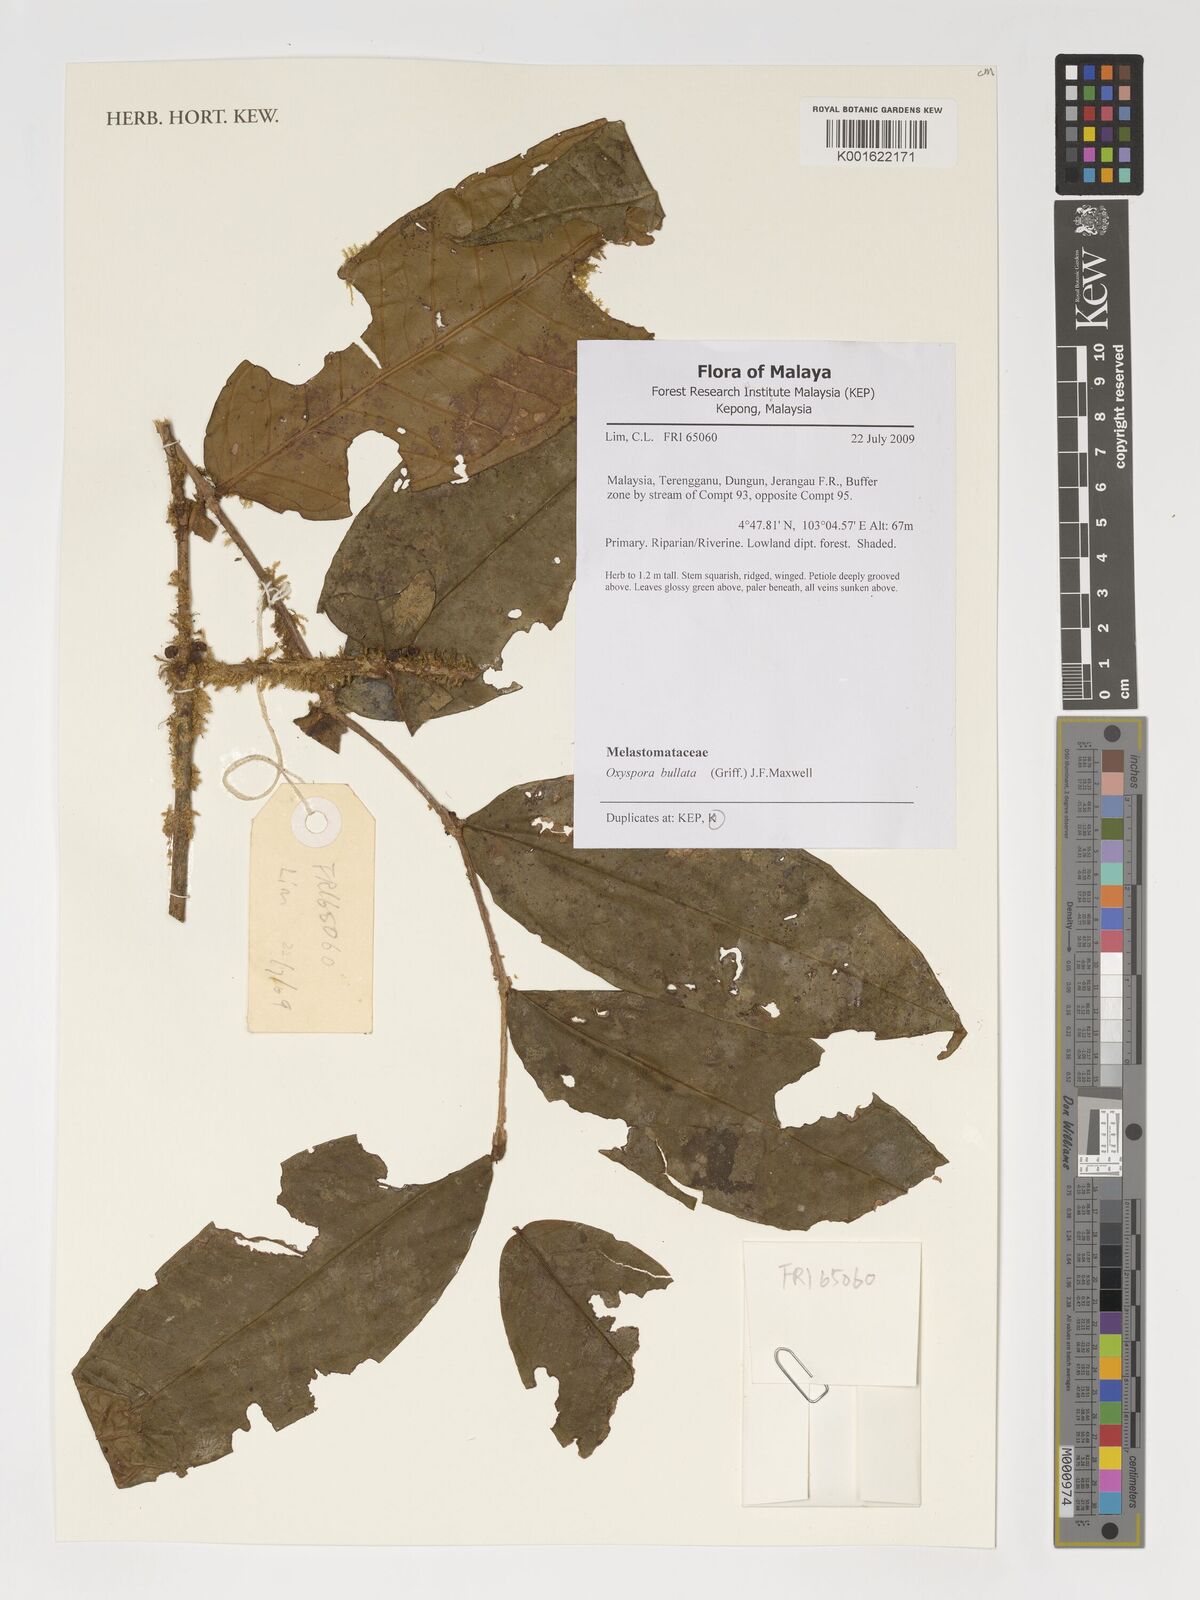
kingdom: Plantae
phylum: Tracheophyta
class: Magnoliopsida
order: Myrtales
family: Melastomataceae
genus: Allomorphia
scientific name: Allomorphia bullata
